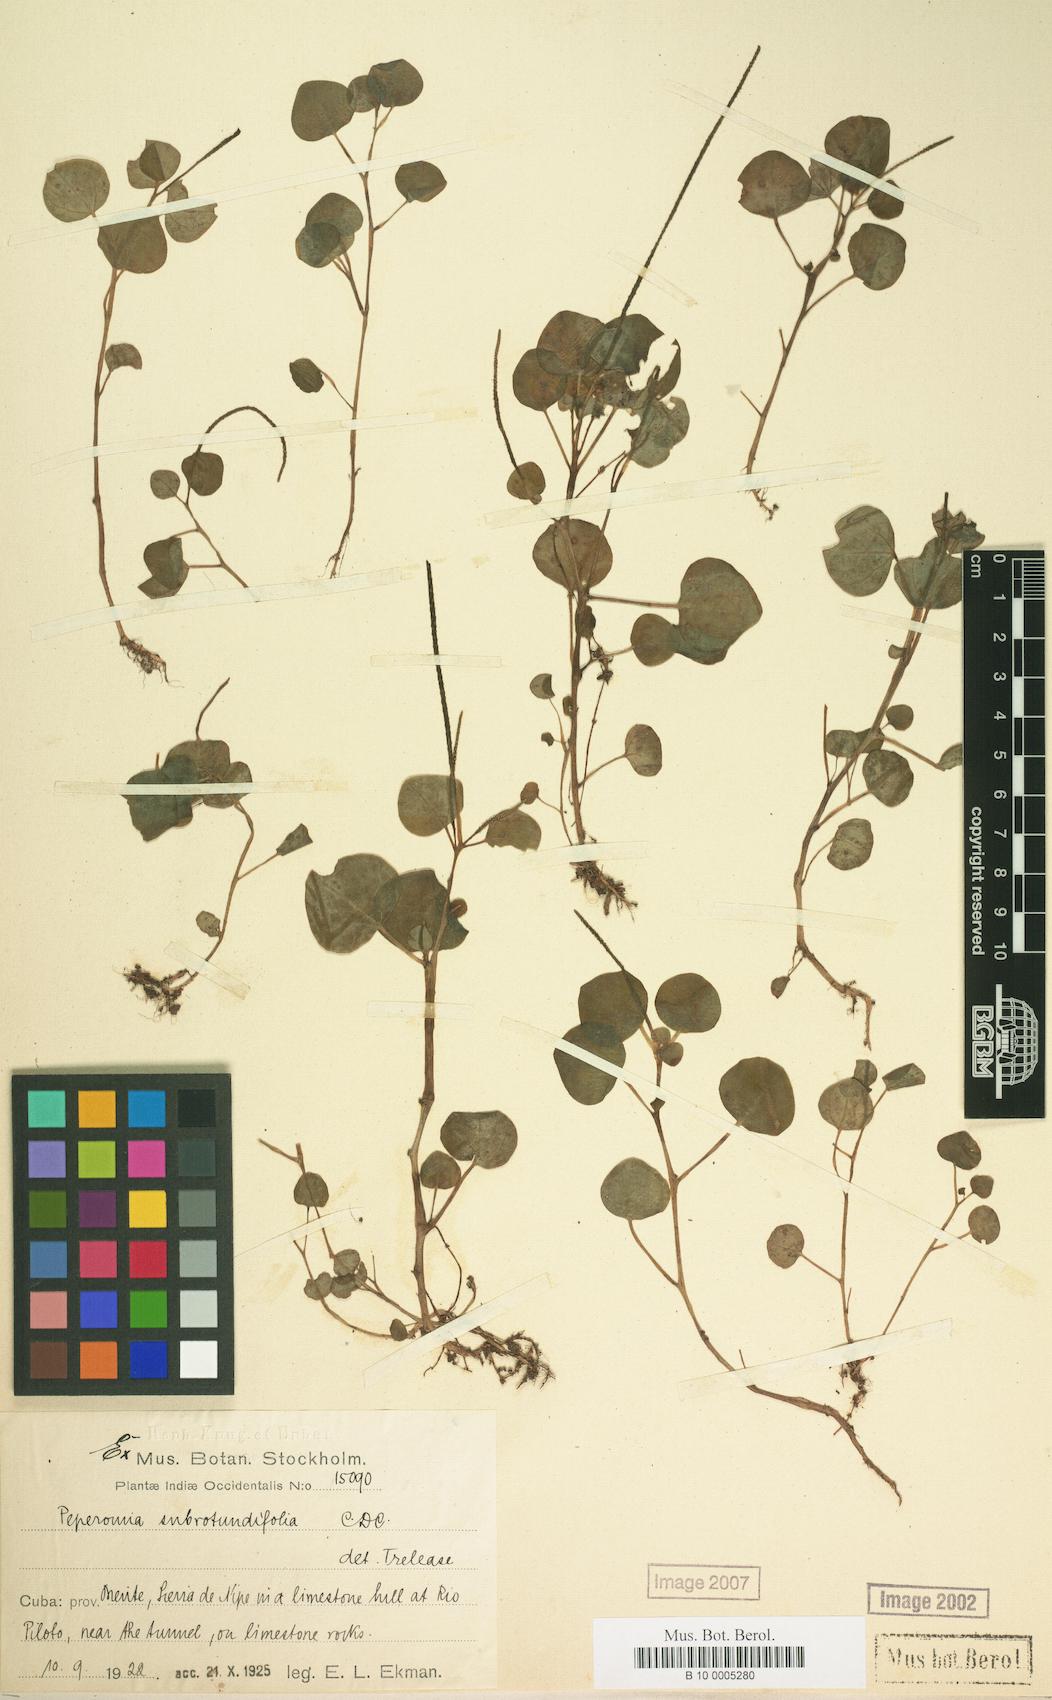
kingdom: Plantae
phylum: Tracheophyta
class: Magnoliopsida
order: Piperales
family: Piperaceae
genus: Peperomia
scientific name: Peperomia subrotundifolia
